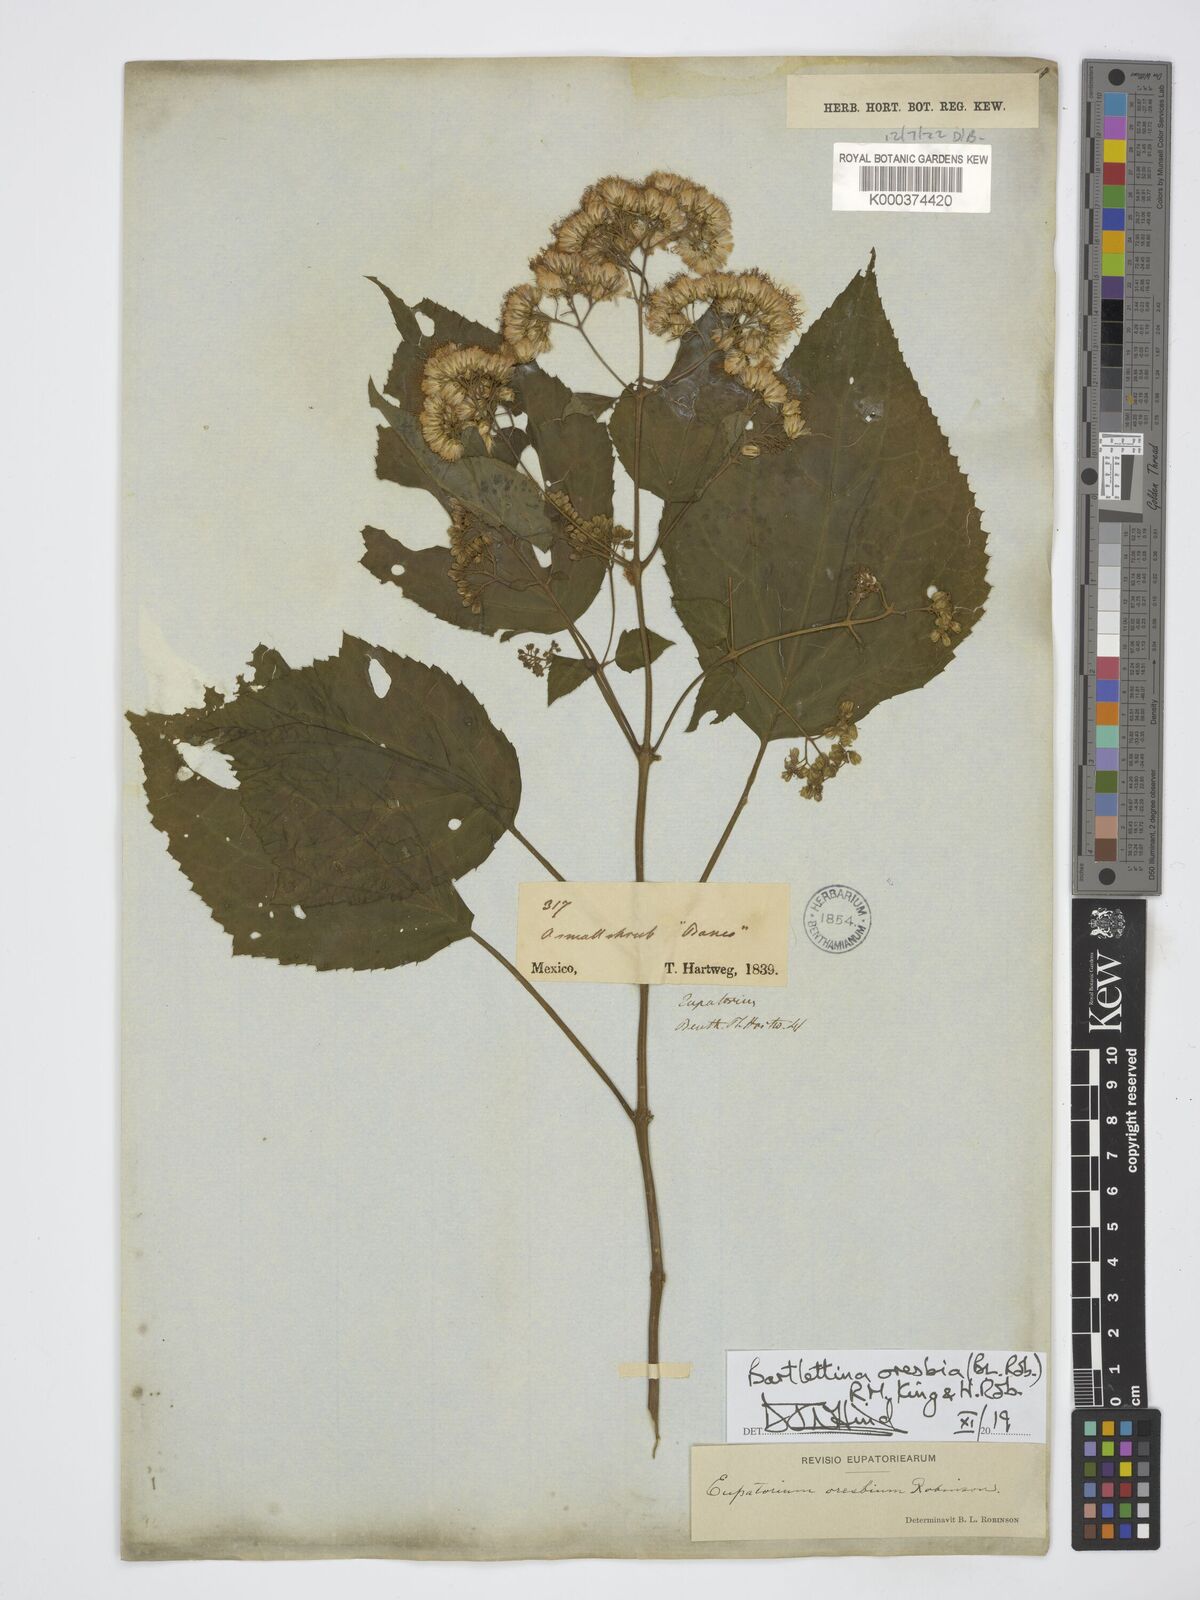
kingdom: Plantae
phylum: Tracheophyta
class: Magnoliopsida
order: Asterales
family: Asteraceae
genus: Bartlettina
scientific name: Bartlettina oresbia
